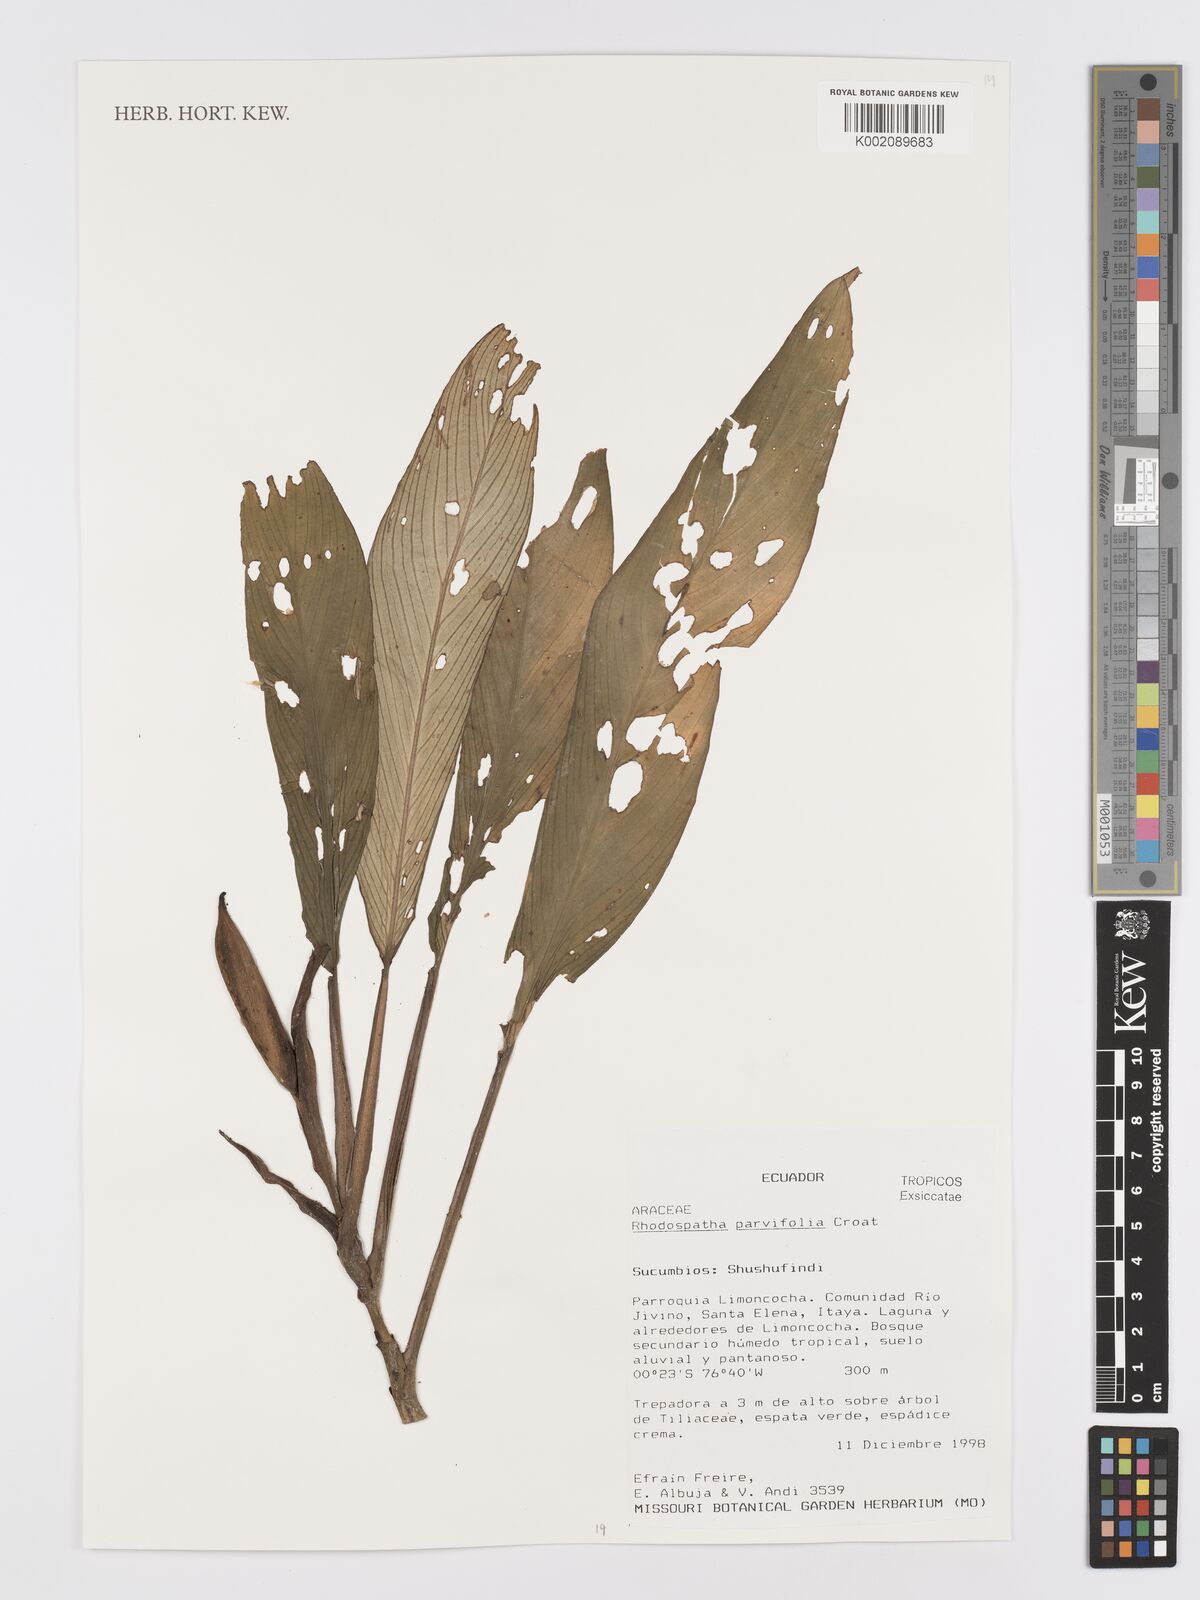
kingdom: Plantae
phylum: Tracheophyta
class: Liliopsida
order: Alismatales
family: Araceae
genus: Rhodospatha
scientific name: Rhodospatha
